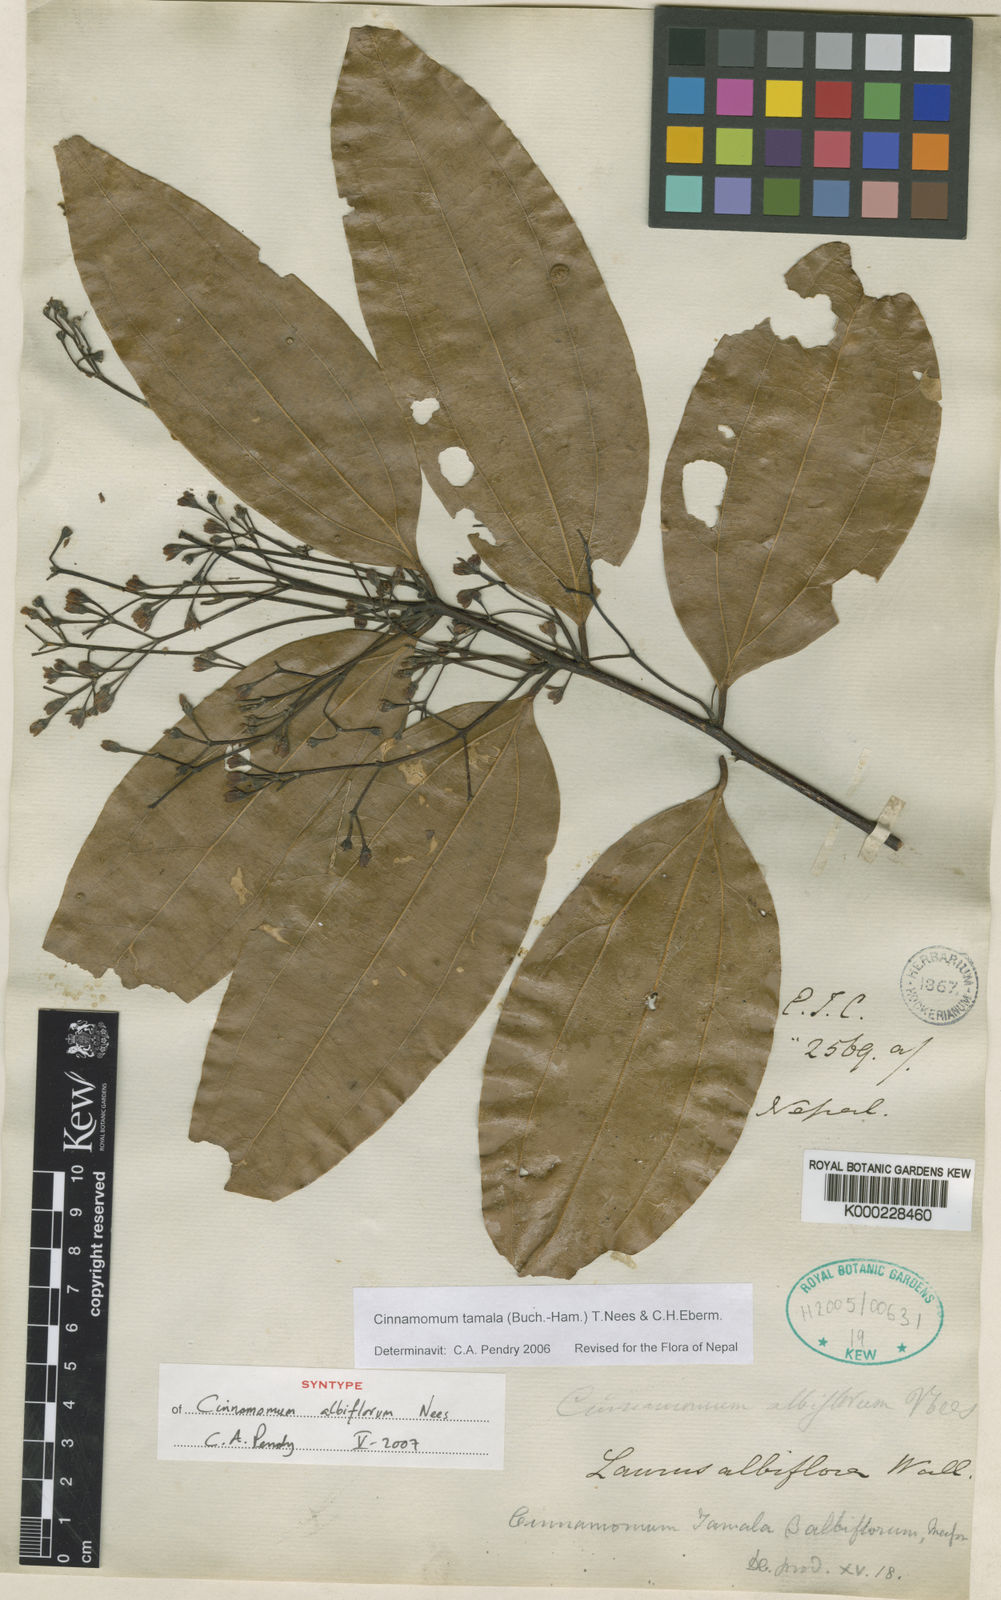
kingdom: Plantae
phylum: Tracheophyta
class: Magnoliopsida
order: Laurales
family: Lauraceae
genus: Cinnamomum
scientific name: Cinnamomum tamala
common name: Indian bay leaves
